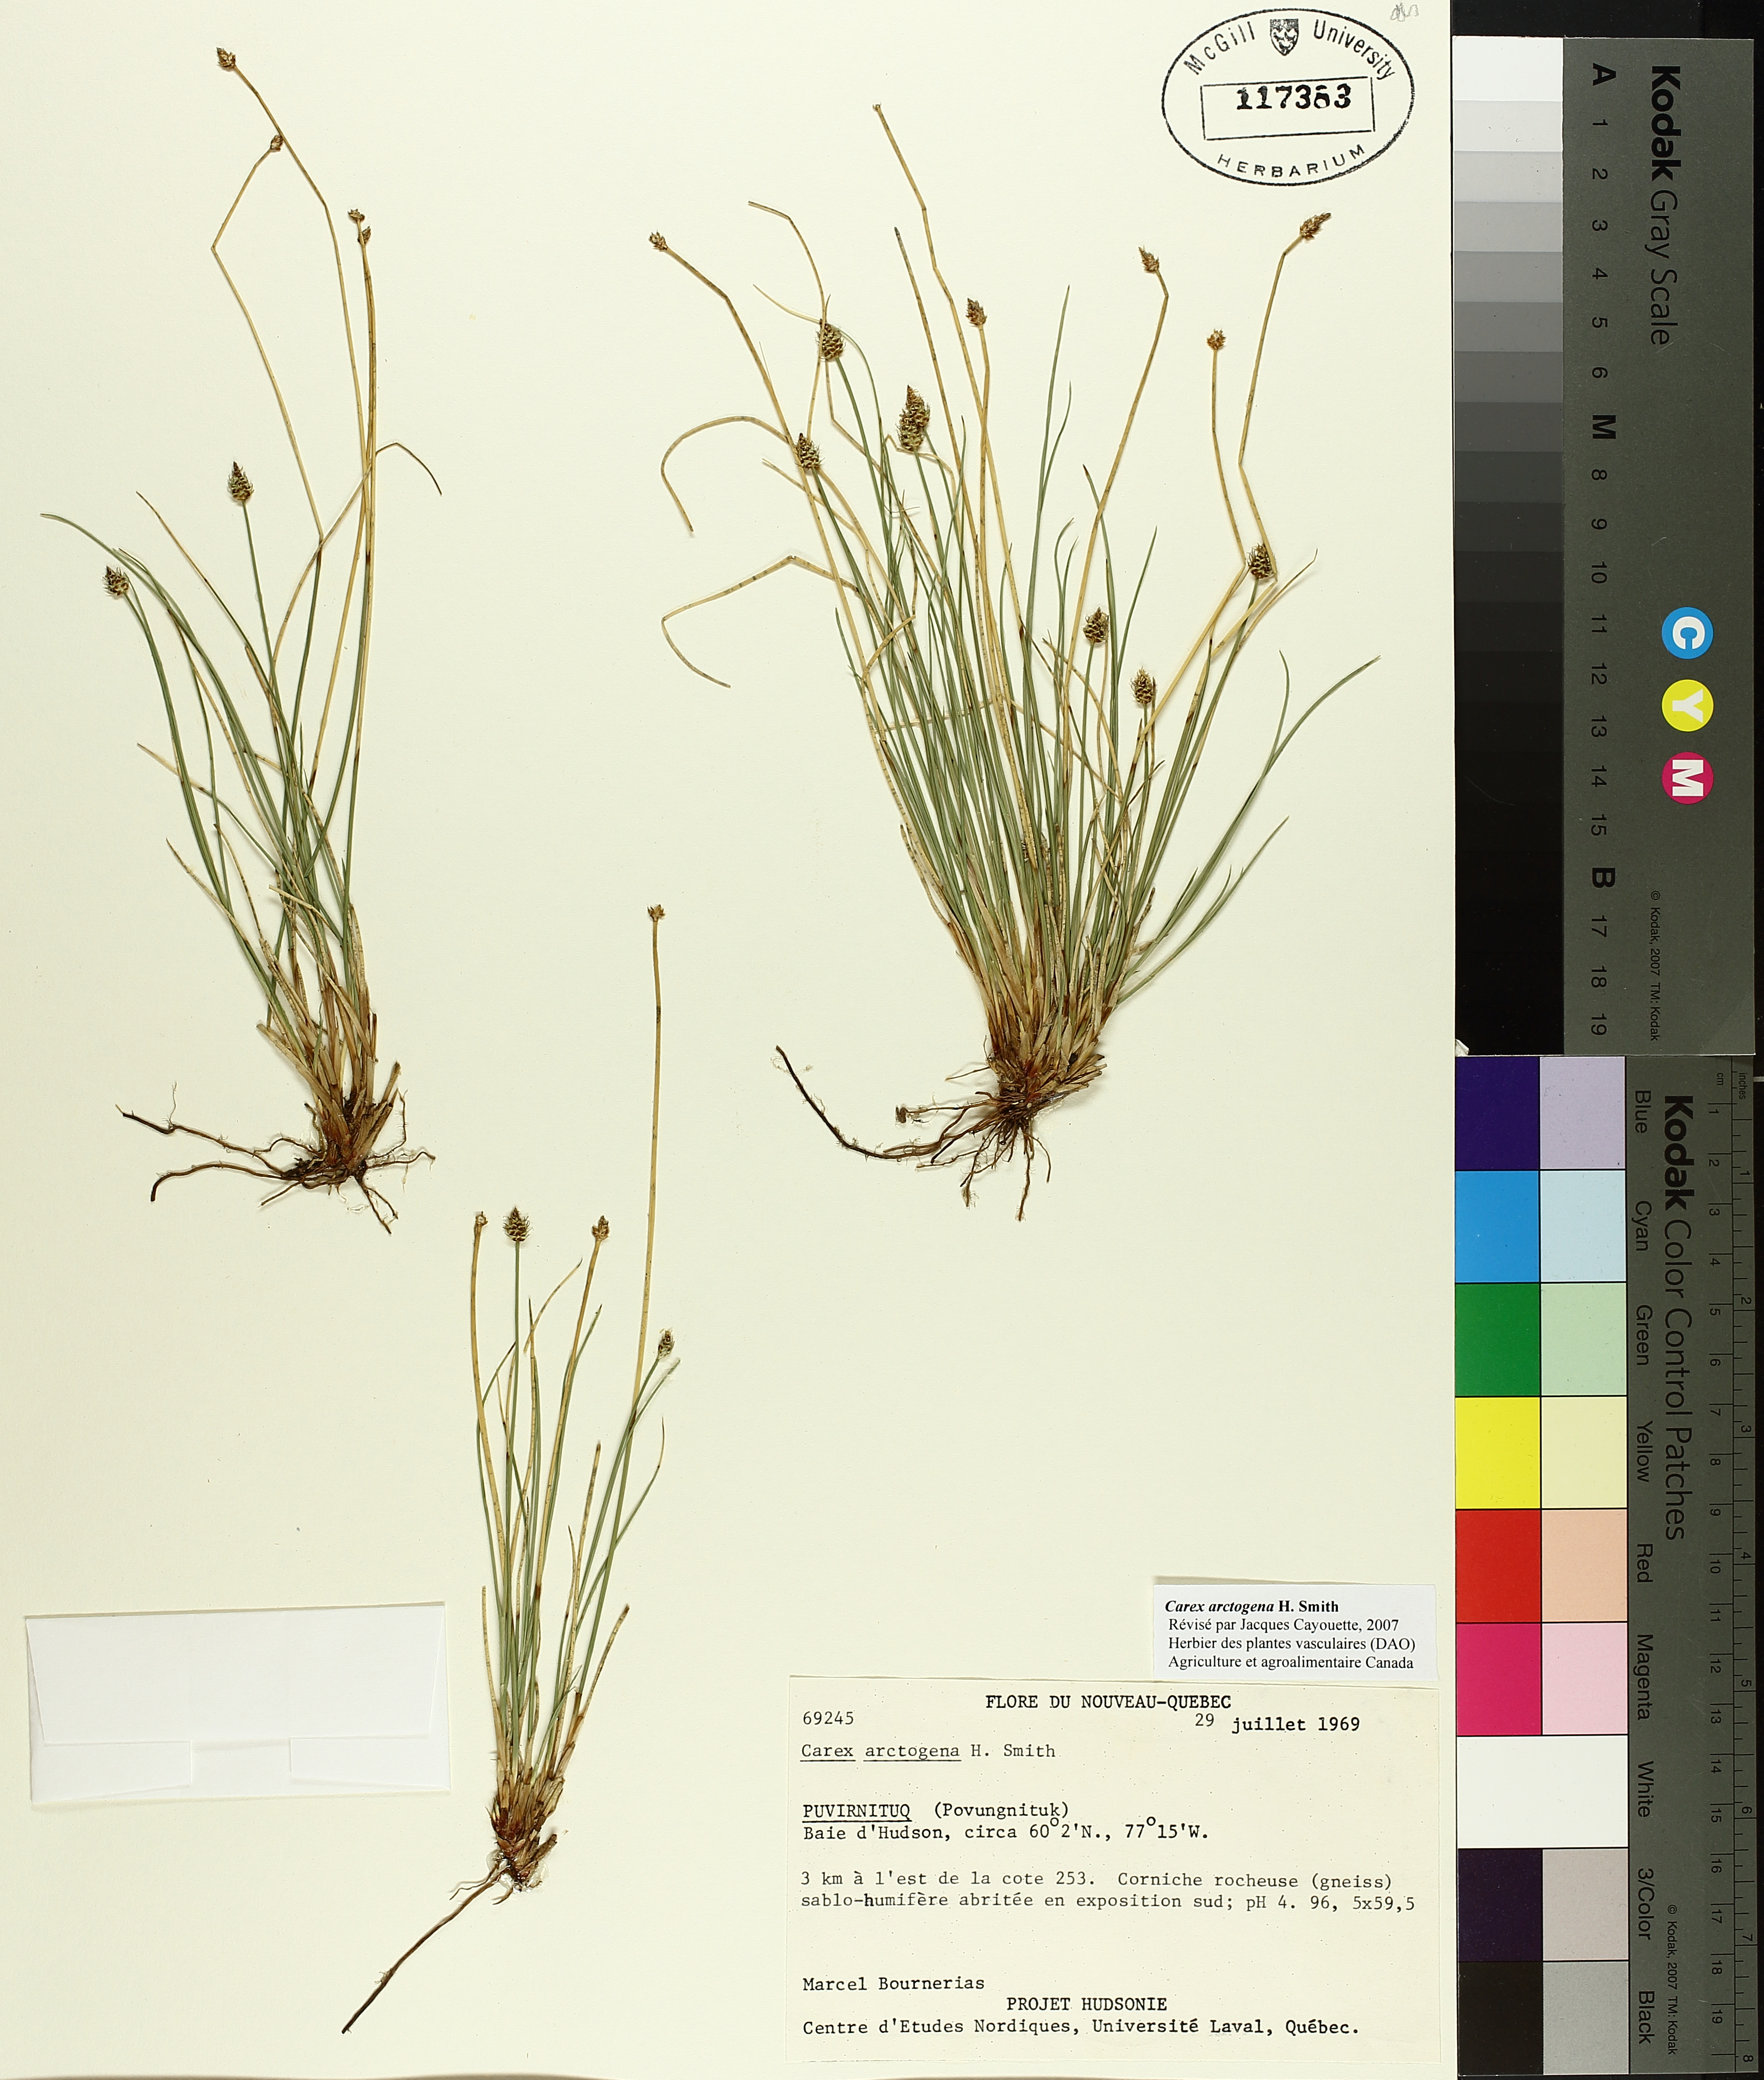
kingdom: Plantae
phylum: Tracheophyta
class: Liliopsida
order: Poales
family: Cyperaceae
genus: Carex
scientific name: Carex arctogena
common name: Black sedge
